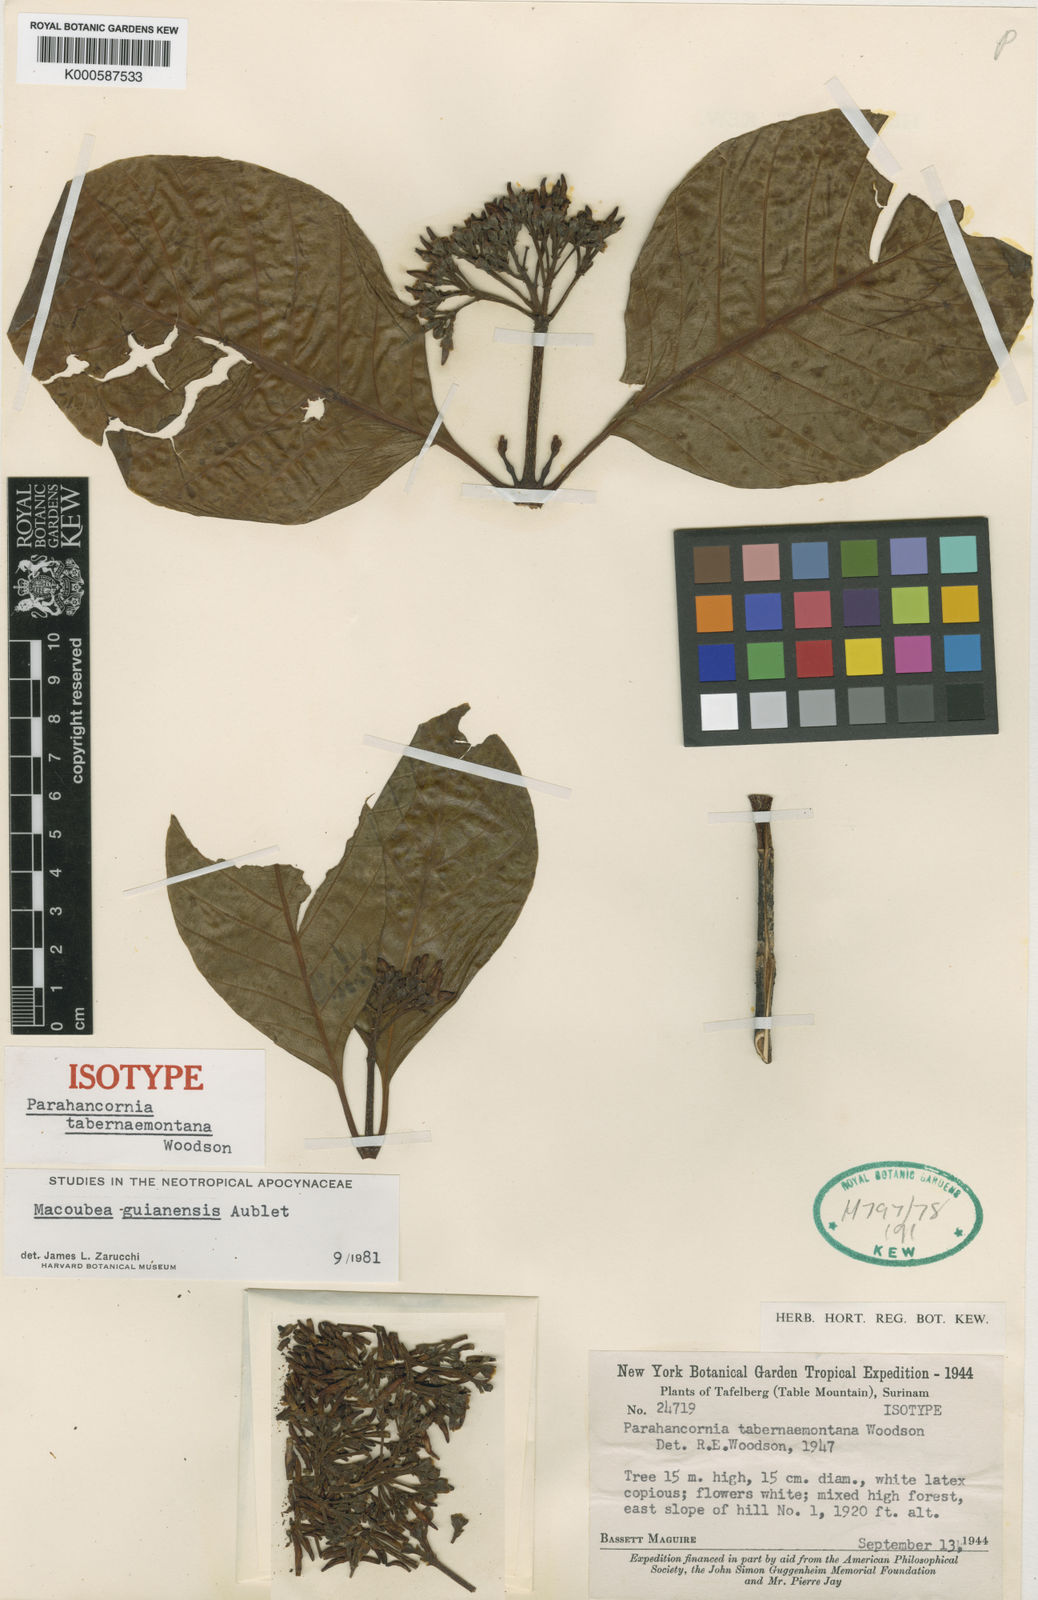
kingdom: Plantae
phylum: Tracheophyta
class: Magnoliopsida
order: Gentianales
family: Apocynaceae
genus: Macoubea
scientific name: Macoubea
